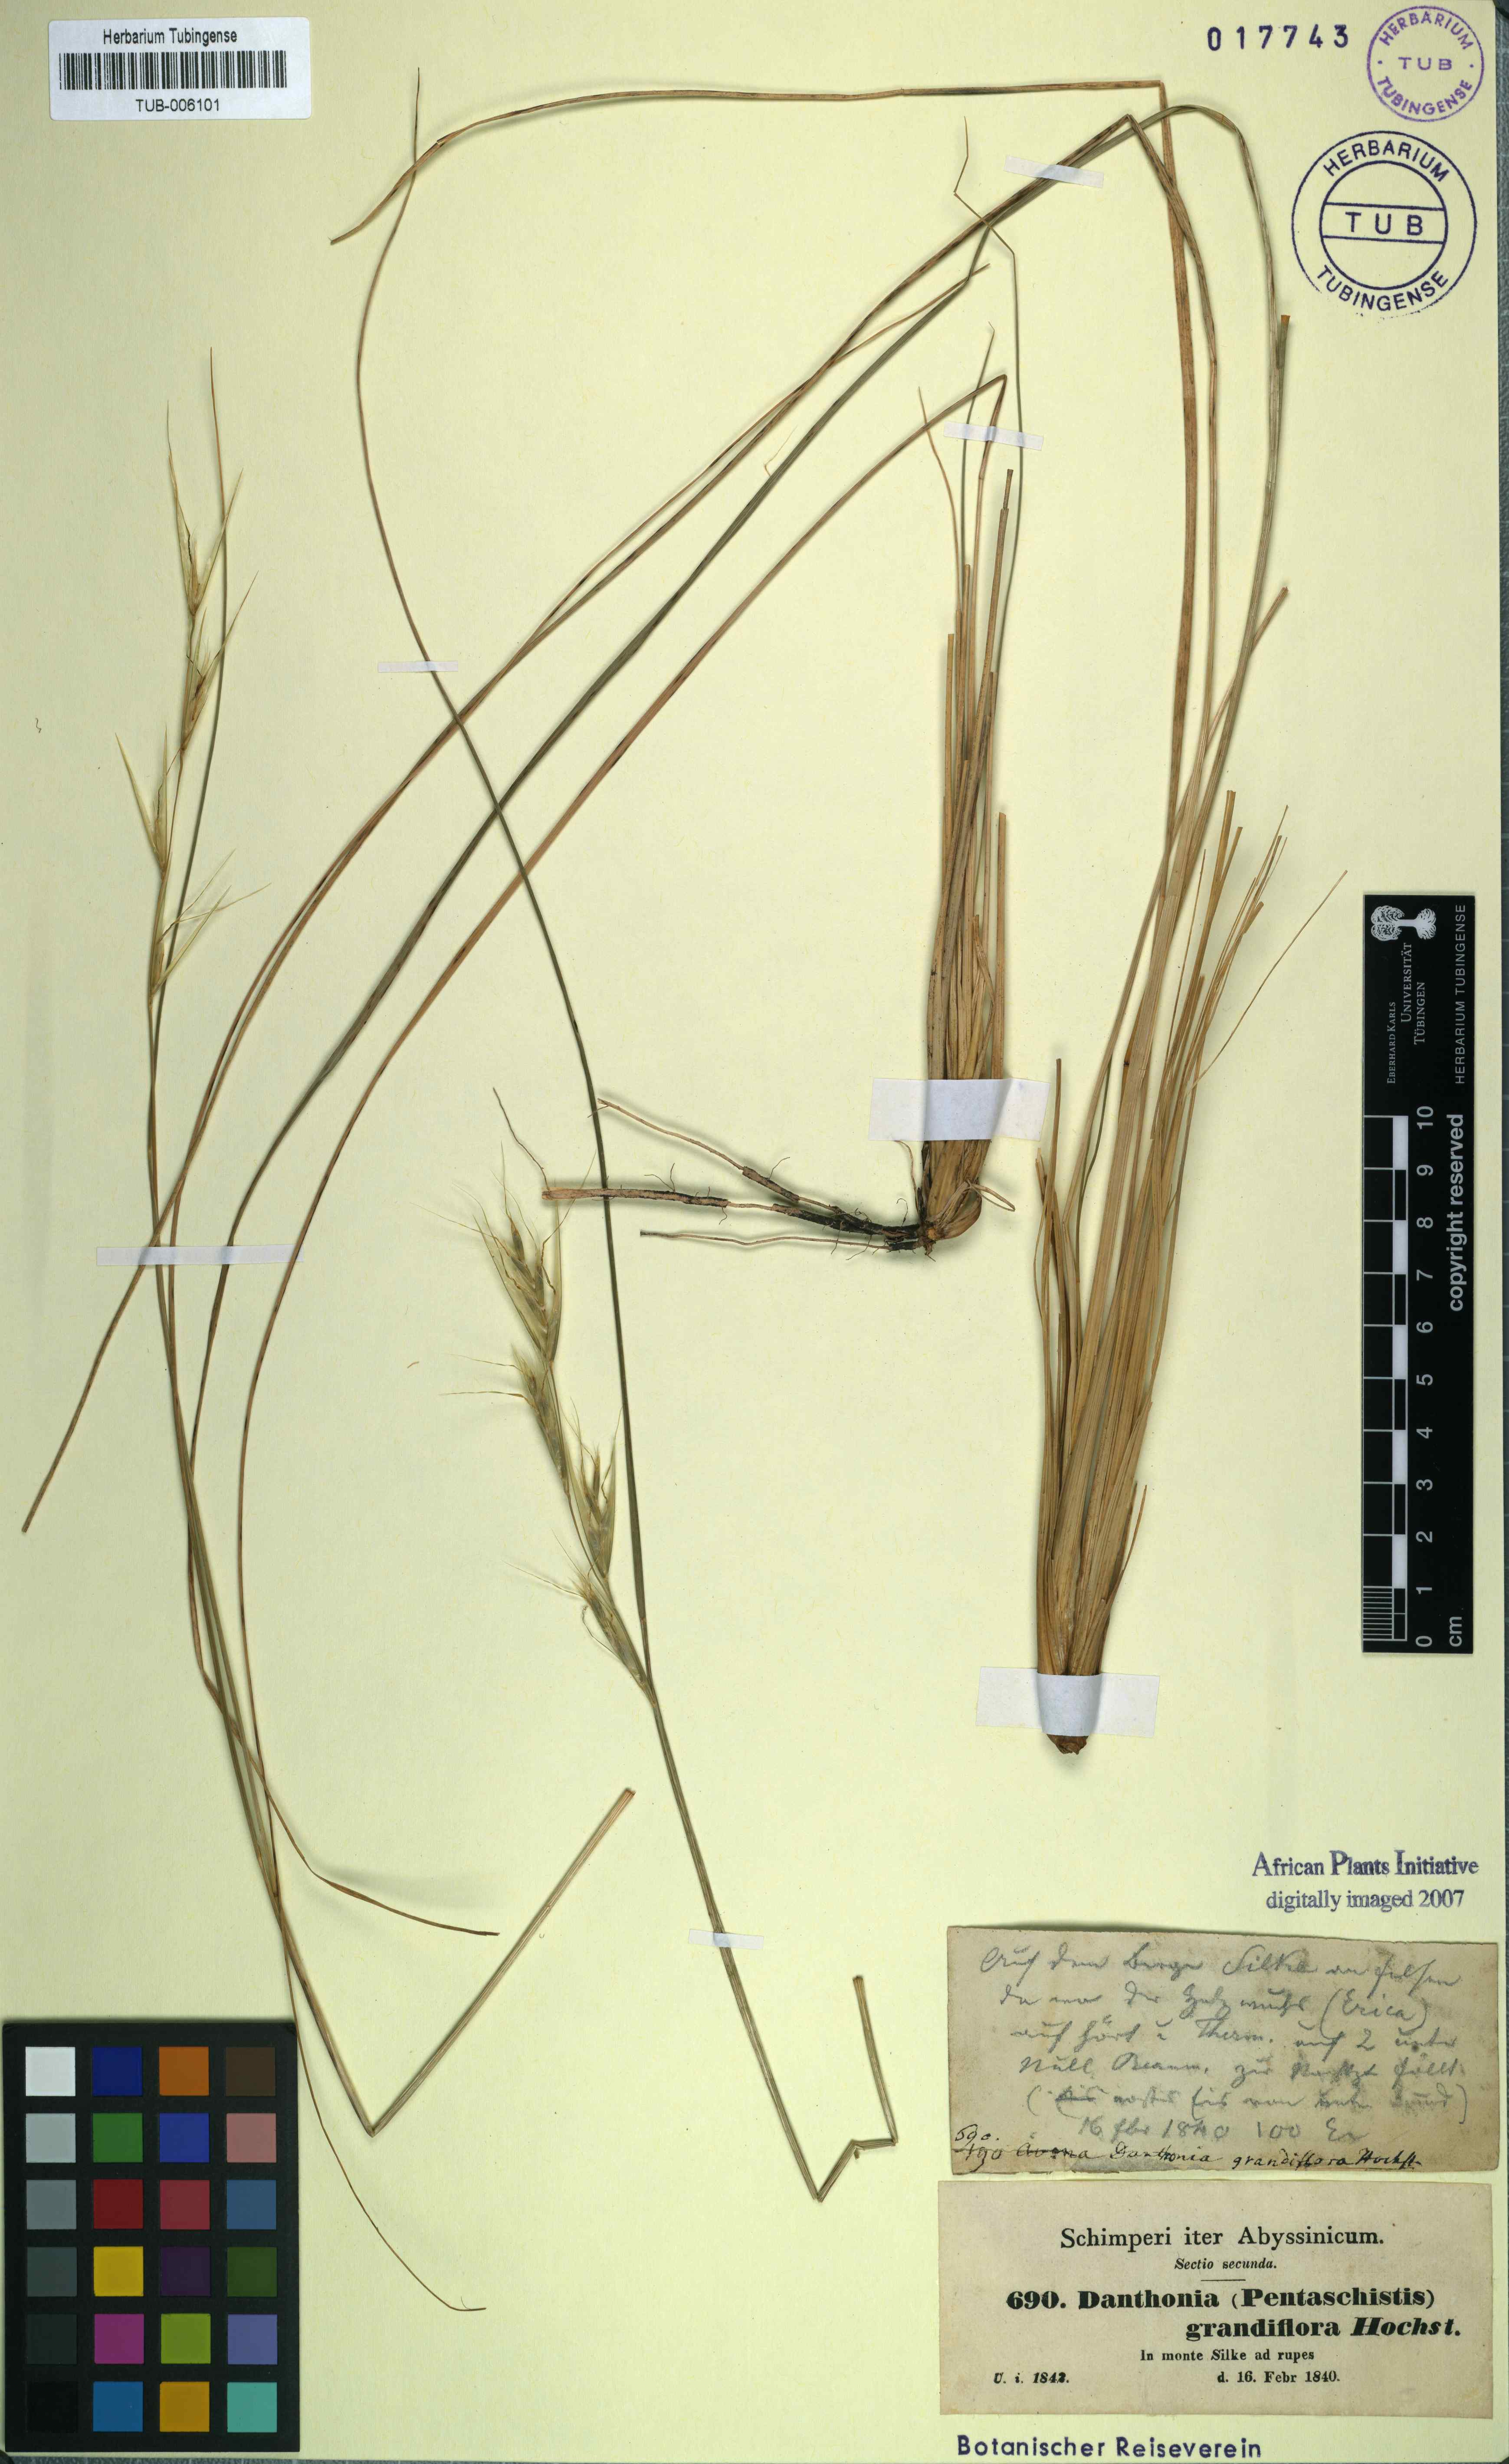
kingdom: Plantae
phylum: Tracheophyta
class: Liliopsida
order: Poales
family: Poaceae
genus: Merxmuellera
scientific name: Merxmuellera grandiflora
